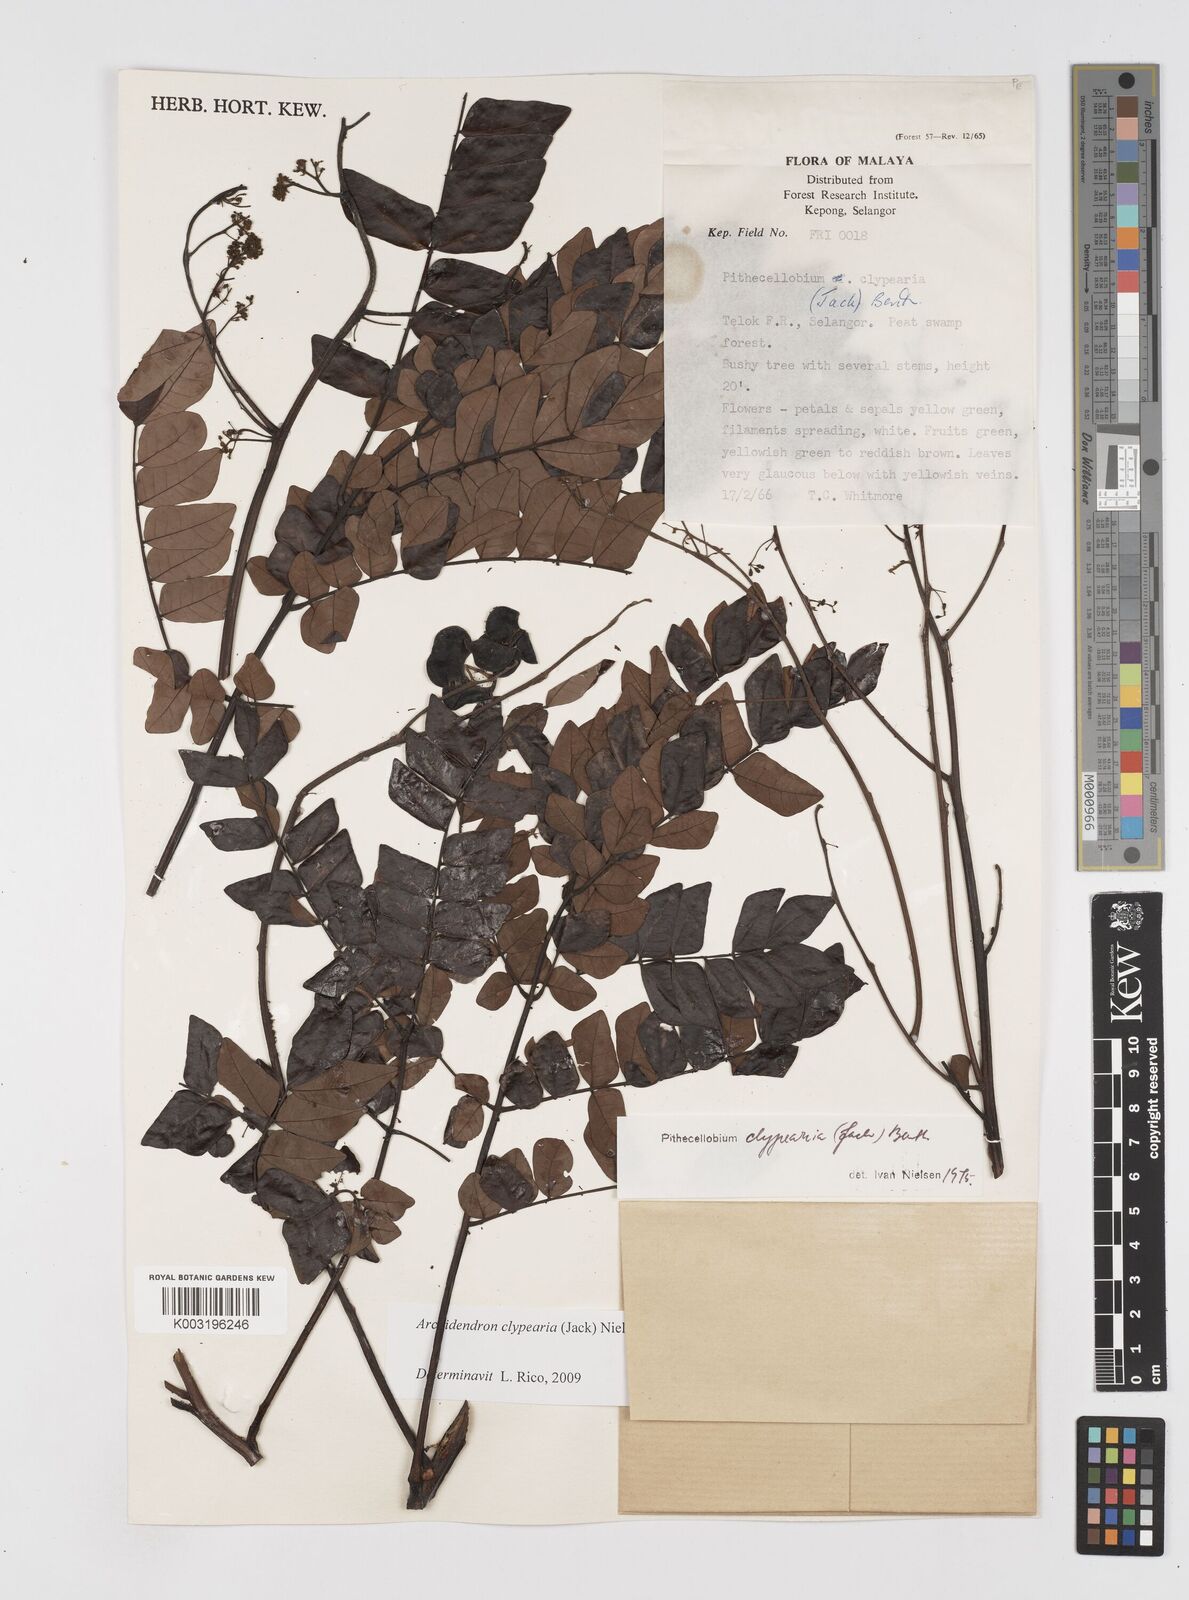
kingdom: Plantae
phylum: Tracheophyta
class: Magnoliopsida
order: Fabales
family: Fabaceae
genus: Archidendron
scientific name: Archidendron clypearia
